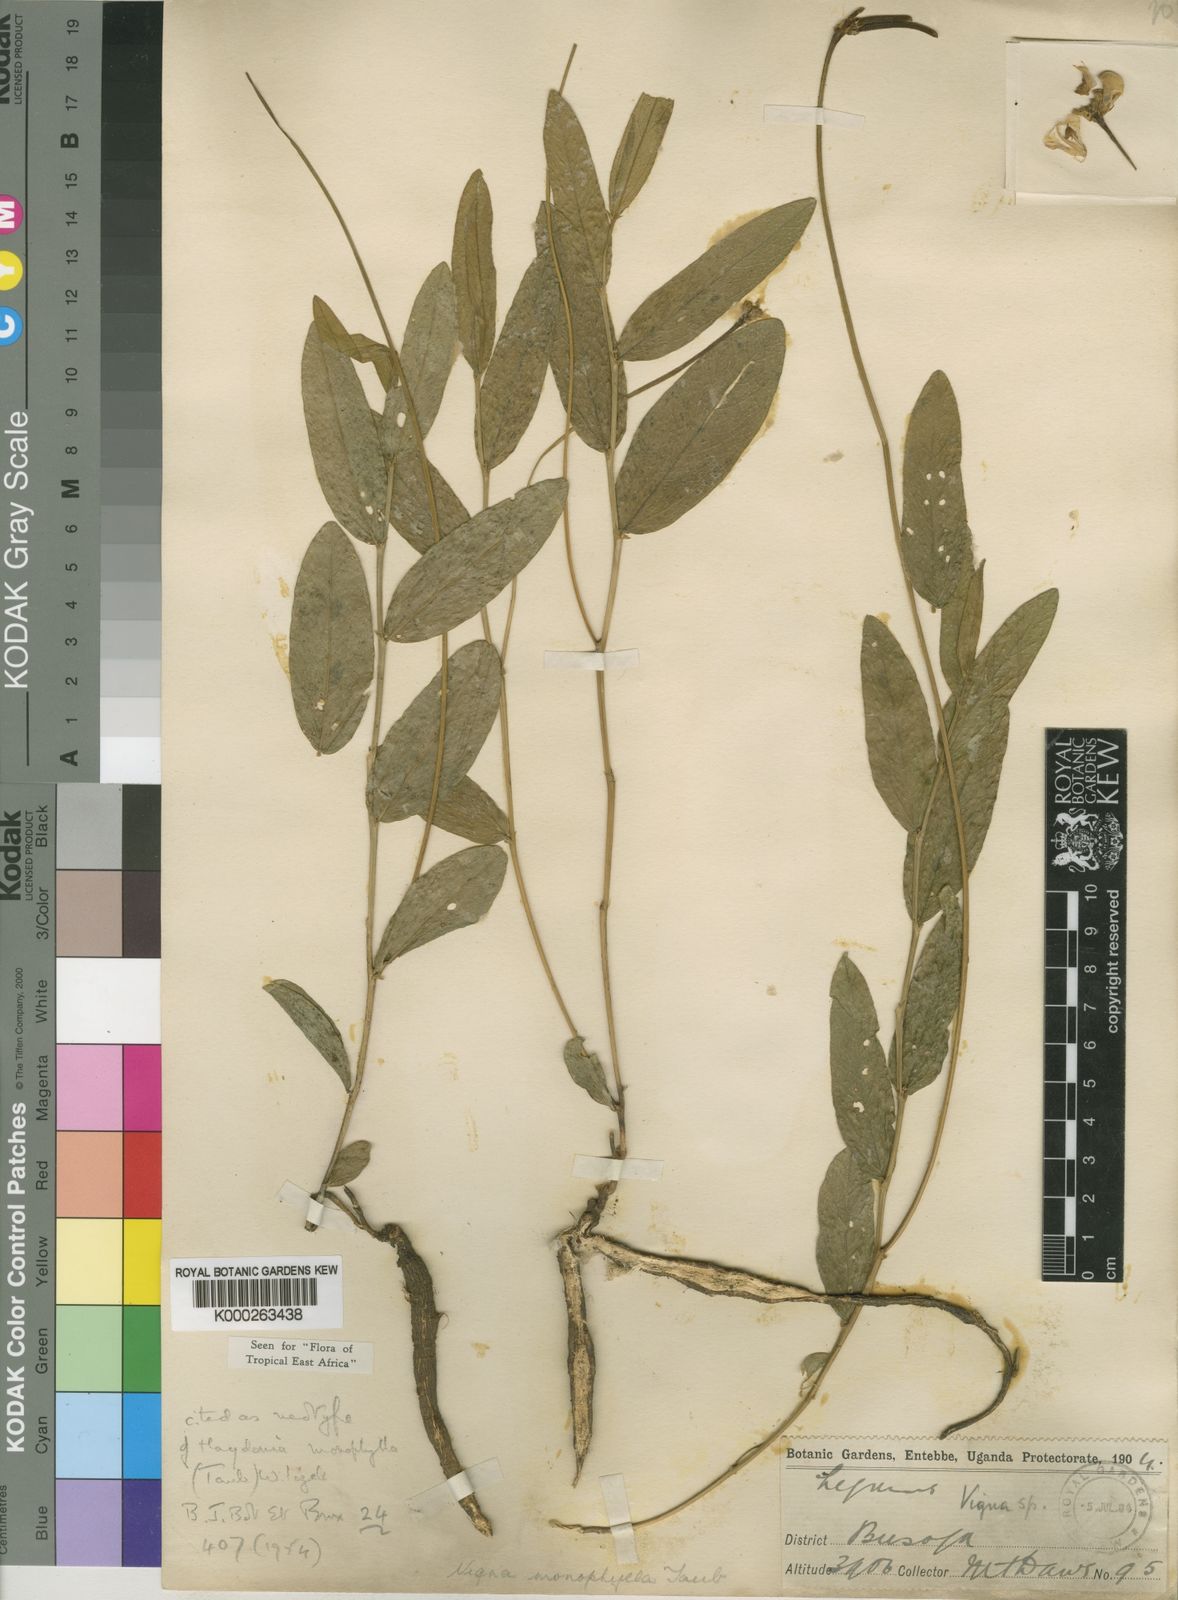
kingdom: Plantae
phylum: Tracheophyta
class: Magnoliopsida
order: Fabales
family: Fabaceae
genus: Vigna
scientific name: Vigna
